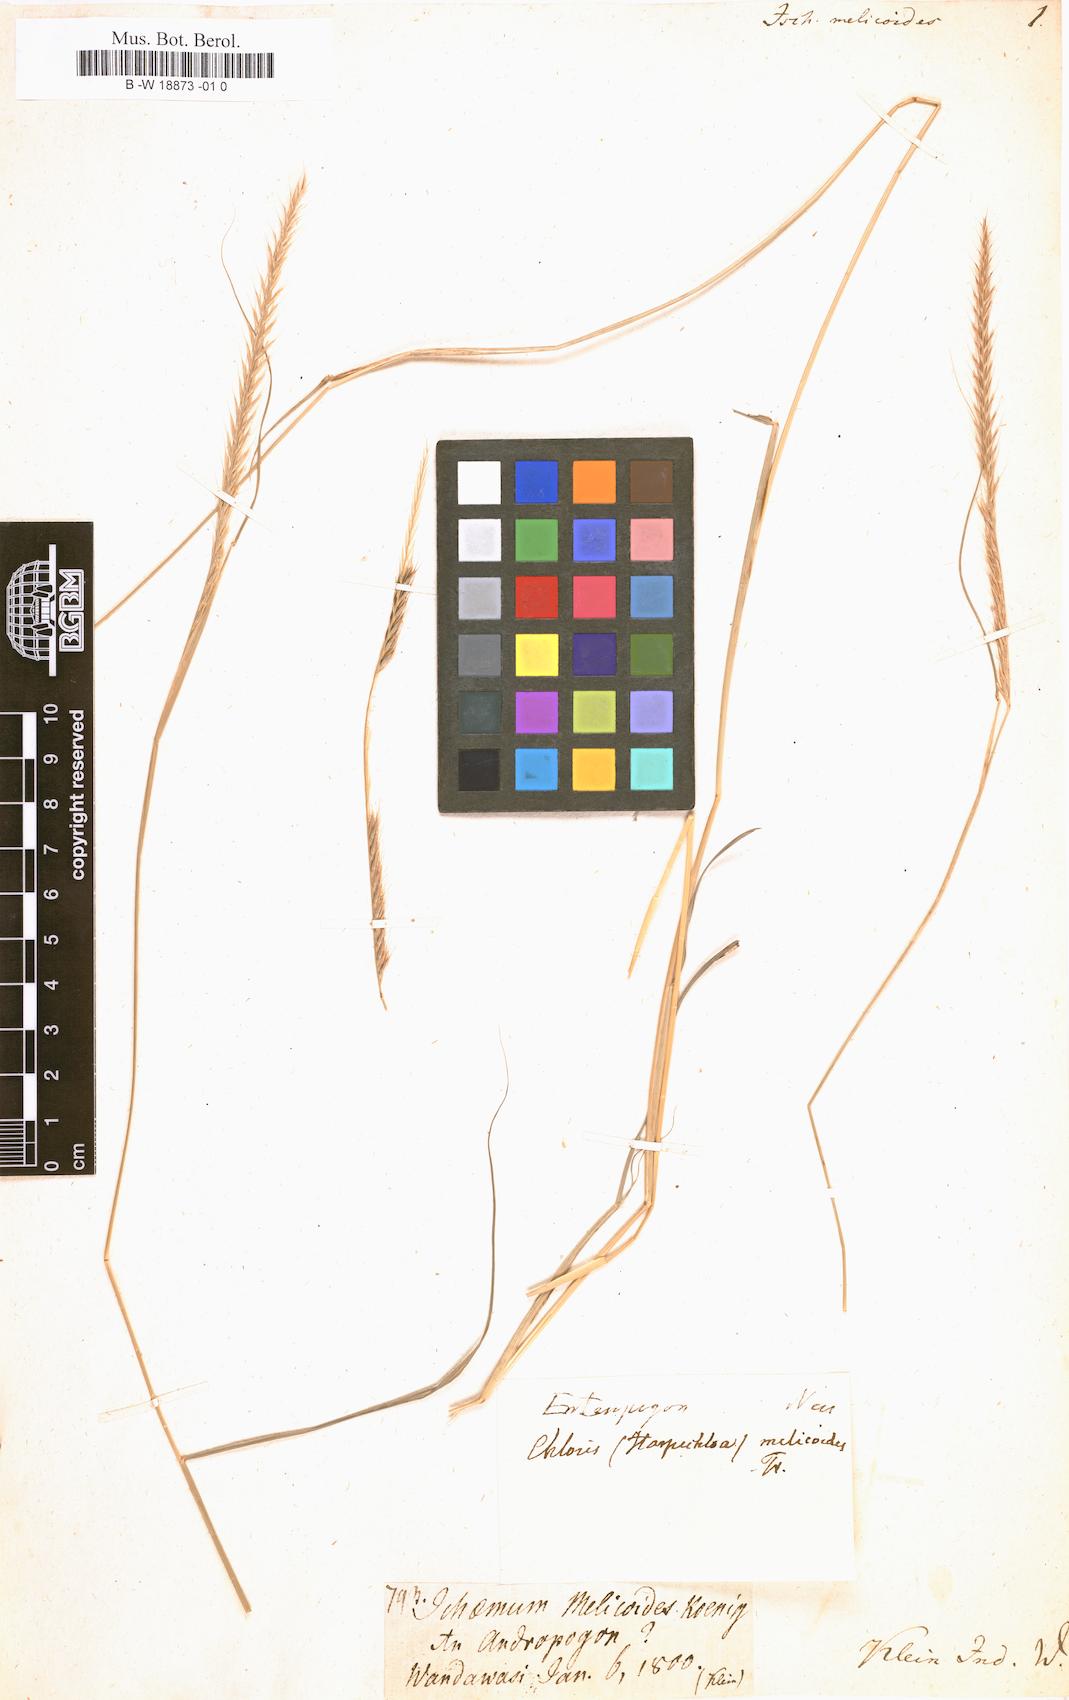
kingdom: Plantae
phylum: Tracheophyta
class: Liliopsida
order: Poales
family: Poaceae
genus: Enteropogon
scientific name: Enteropogon monostachyos
